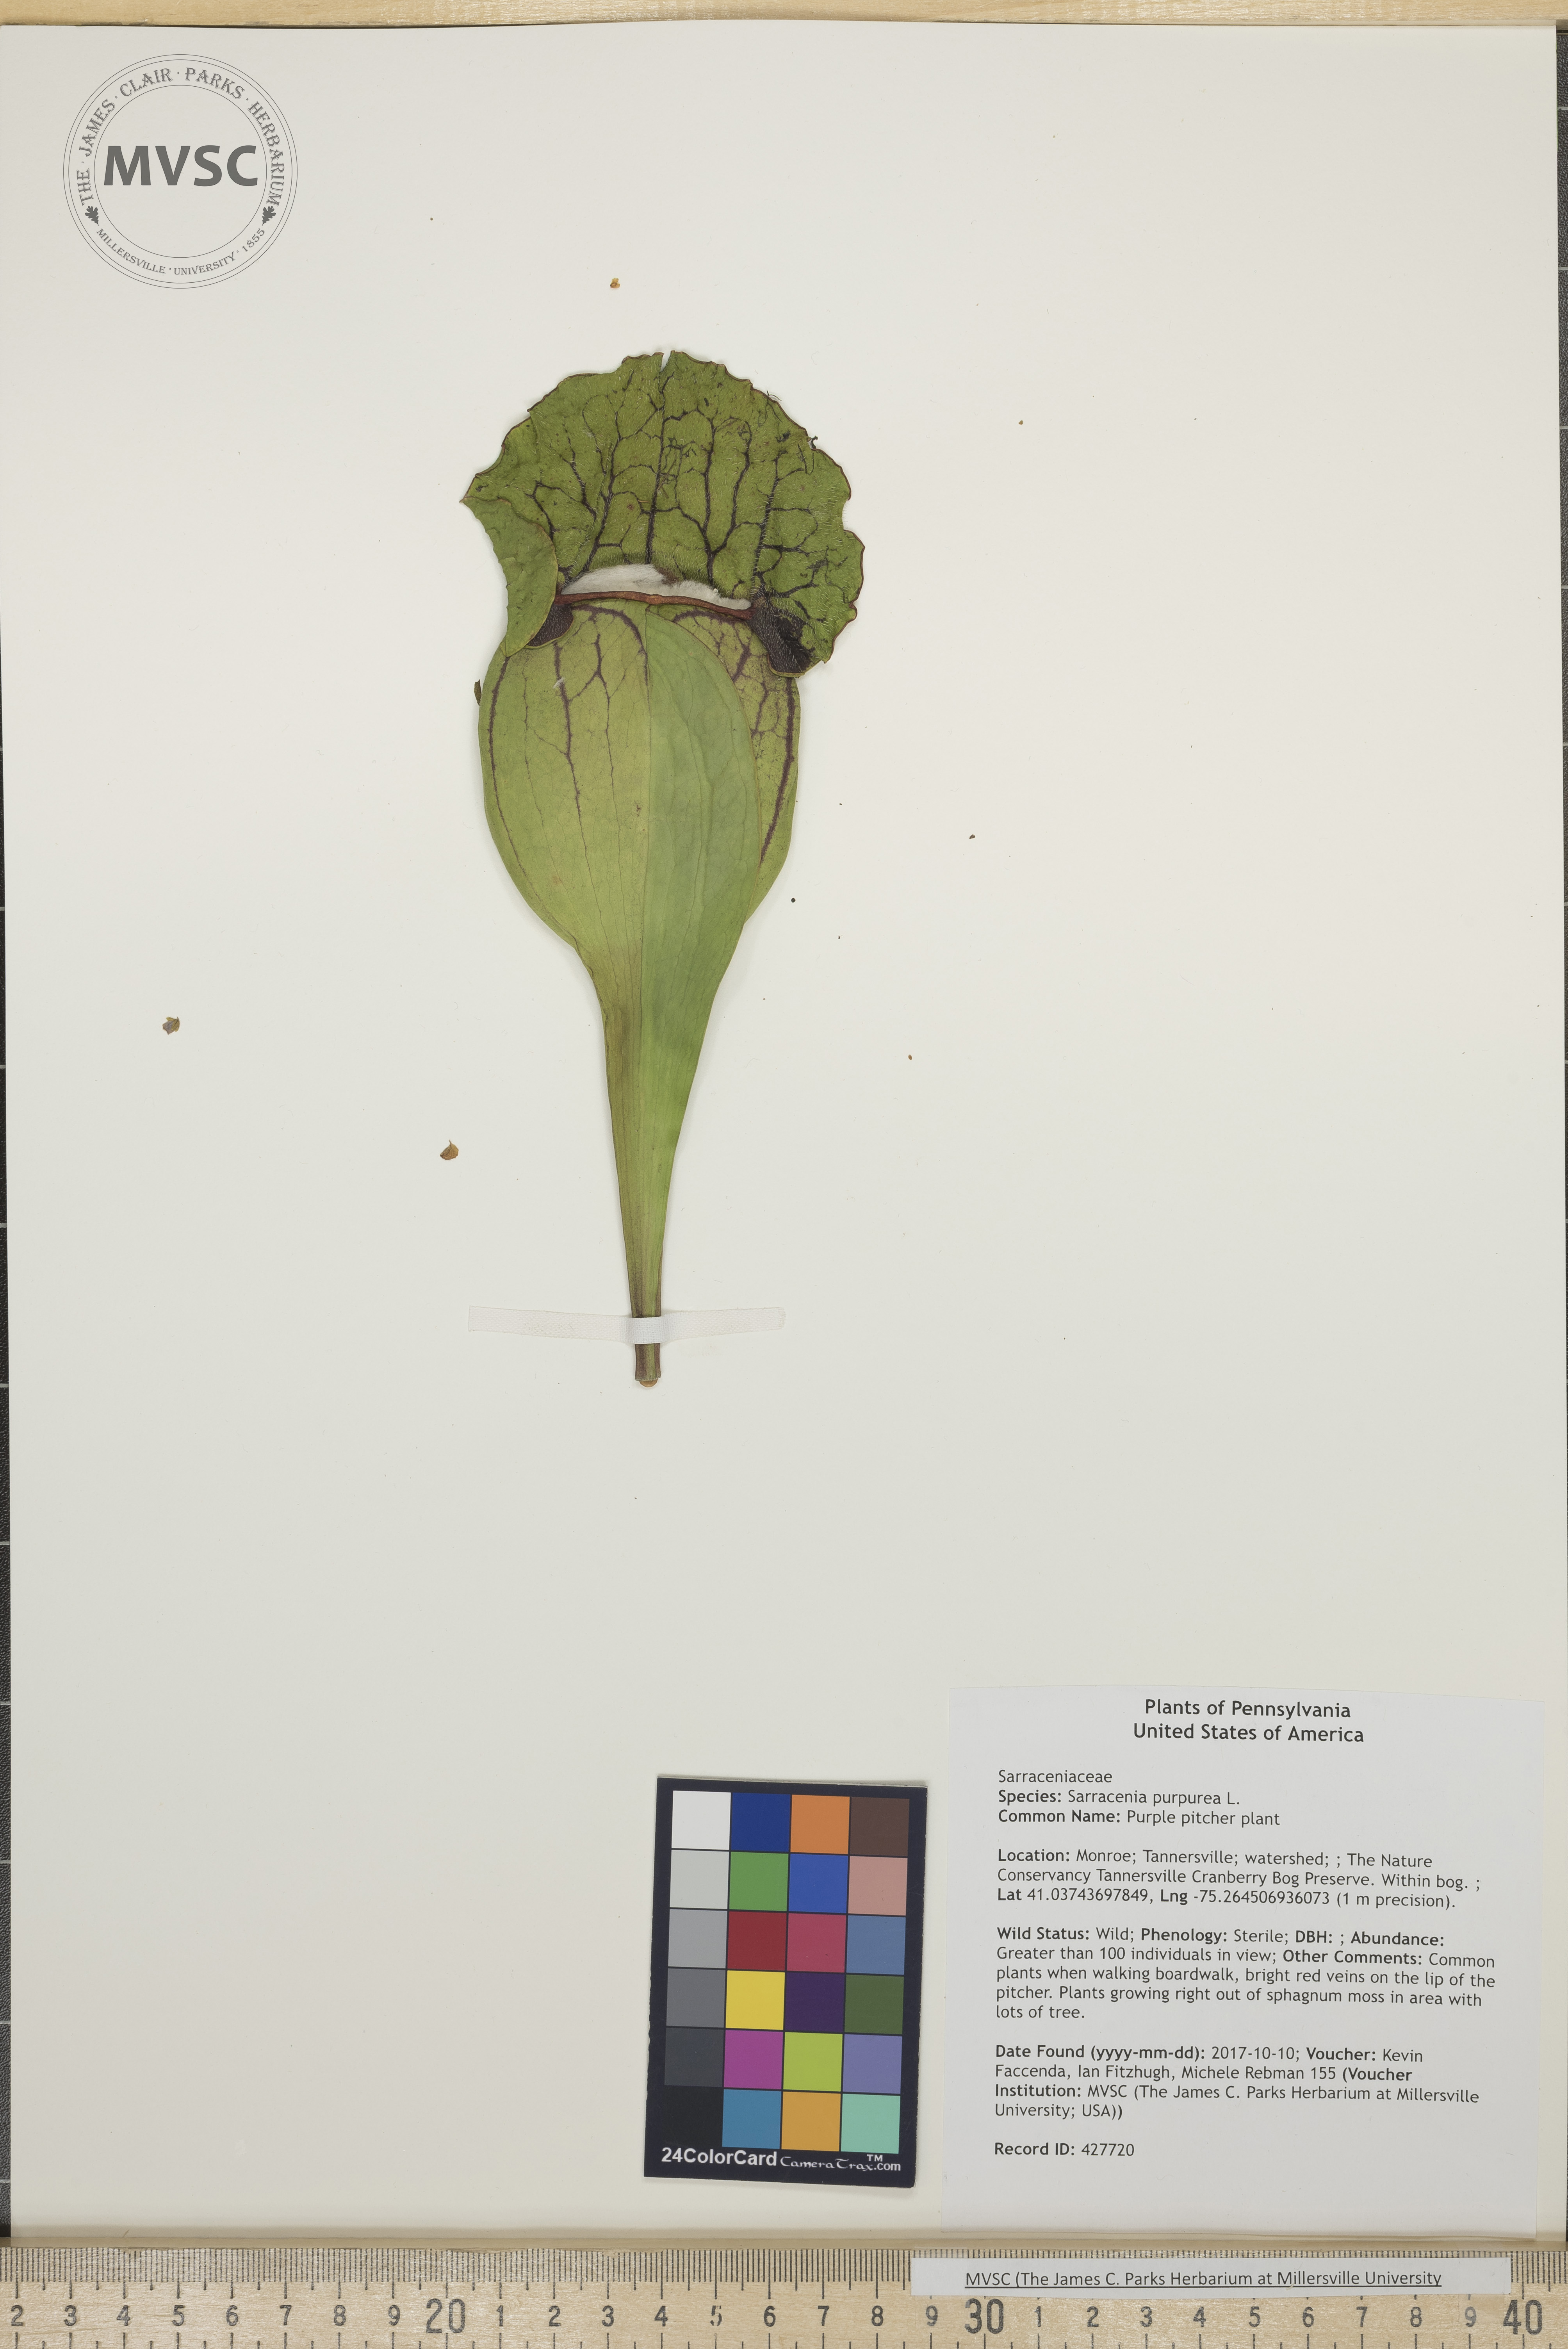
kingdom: Plantae
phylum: Tracheophyta
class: Magnoliopsida
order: Ericales
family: Sarraceniaceae
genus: Sarracenia
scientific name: Sarracenia purpurea
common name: Purple pitcher plant
